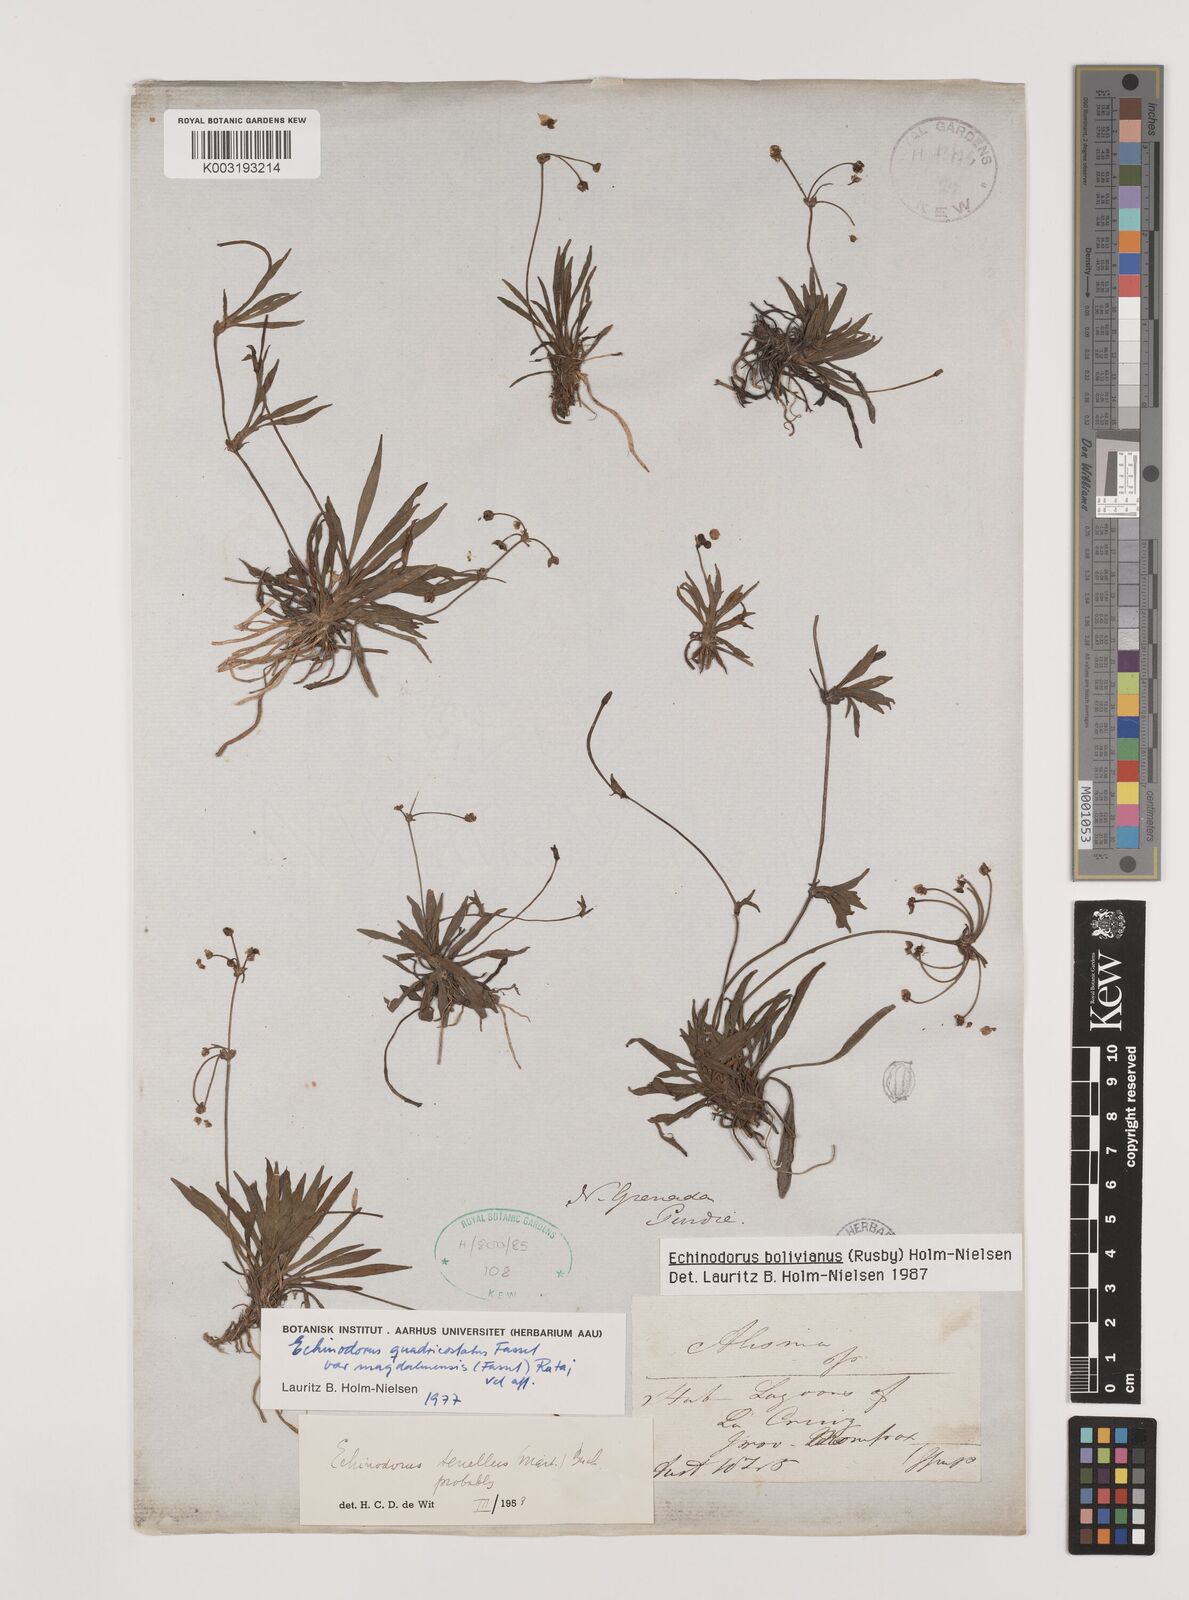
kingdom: Plantae
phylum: Tracheophyta
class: Liliopsida
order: Alismatales
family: Alismataceae
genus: Helanthium
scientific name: Helanthium bolivianum
